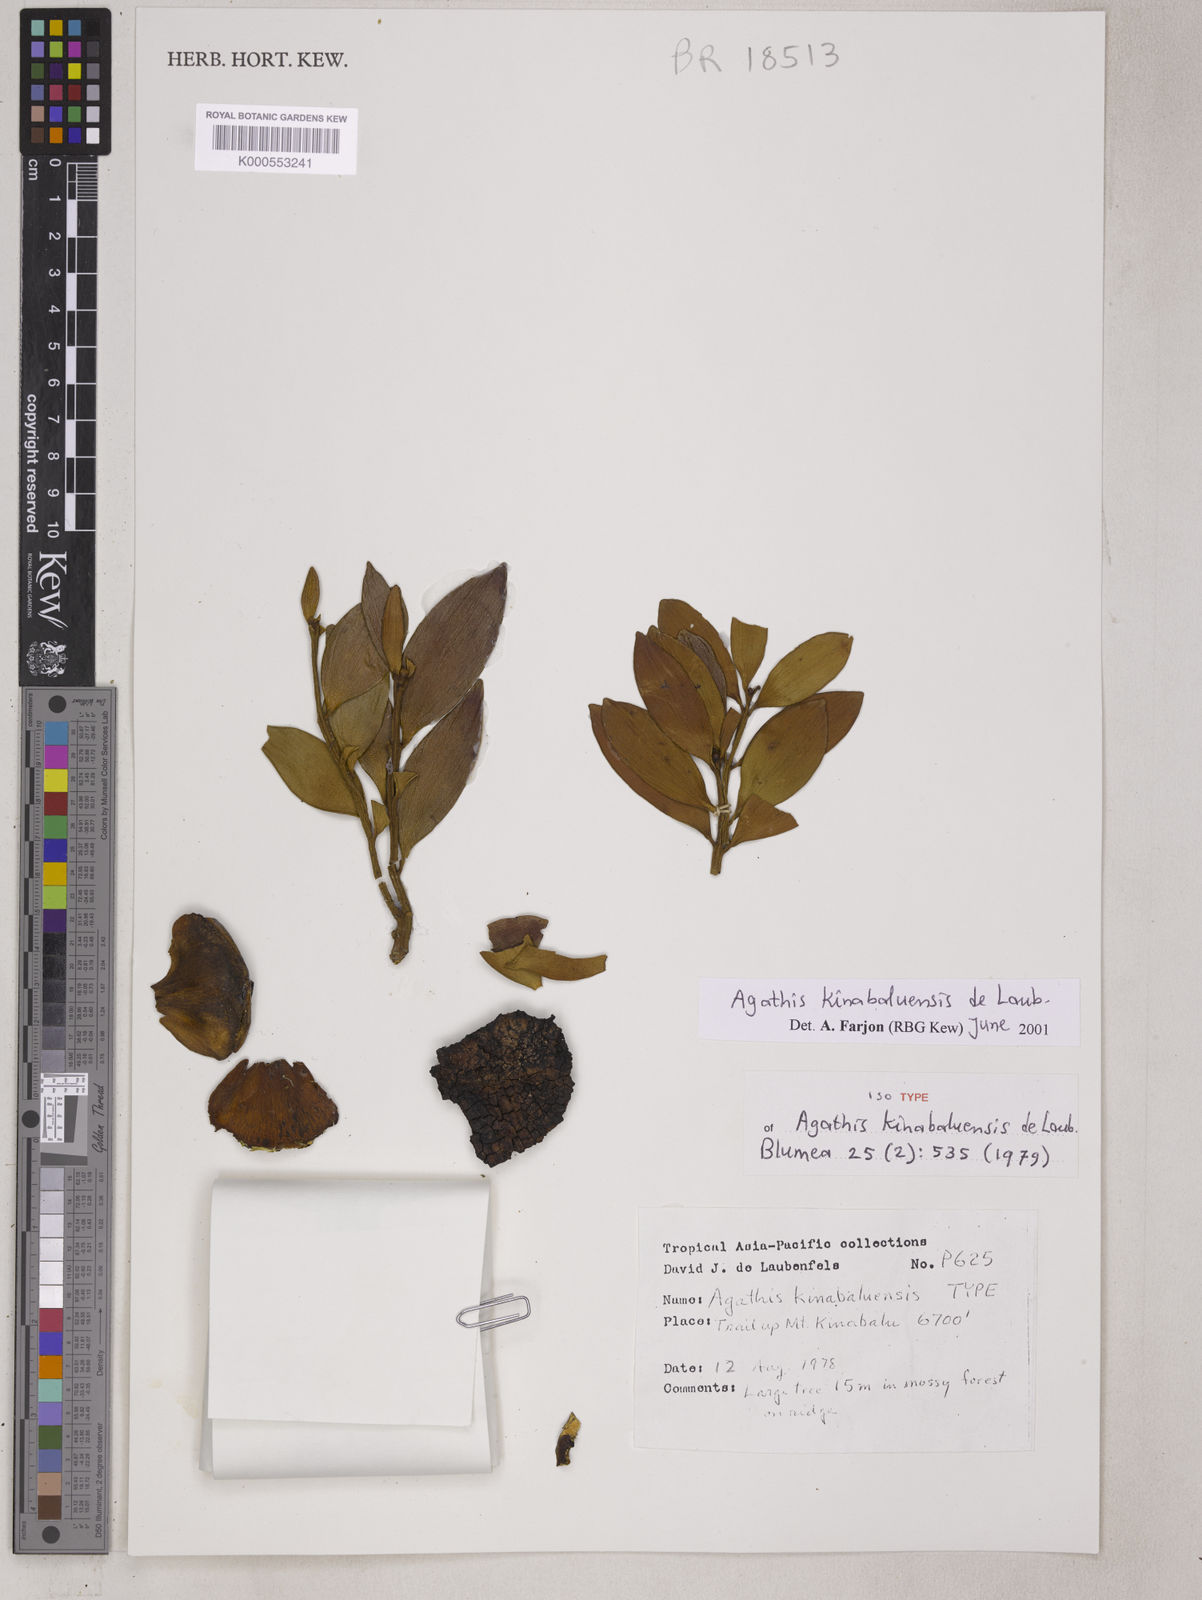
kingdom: Plantae
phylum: Tracheophyta
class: Pinopsida
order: Pinales
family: Araucariaceae
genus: Agathis
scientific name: Agathis kinabaluensis
